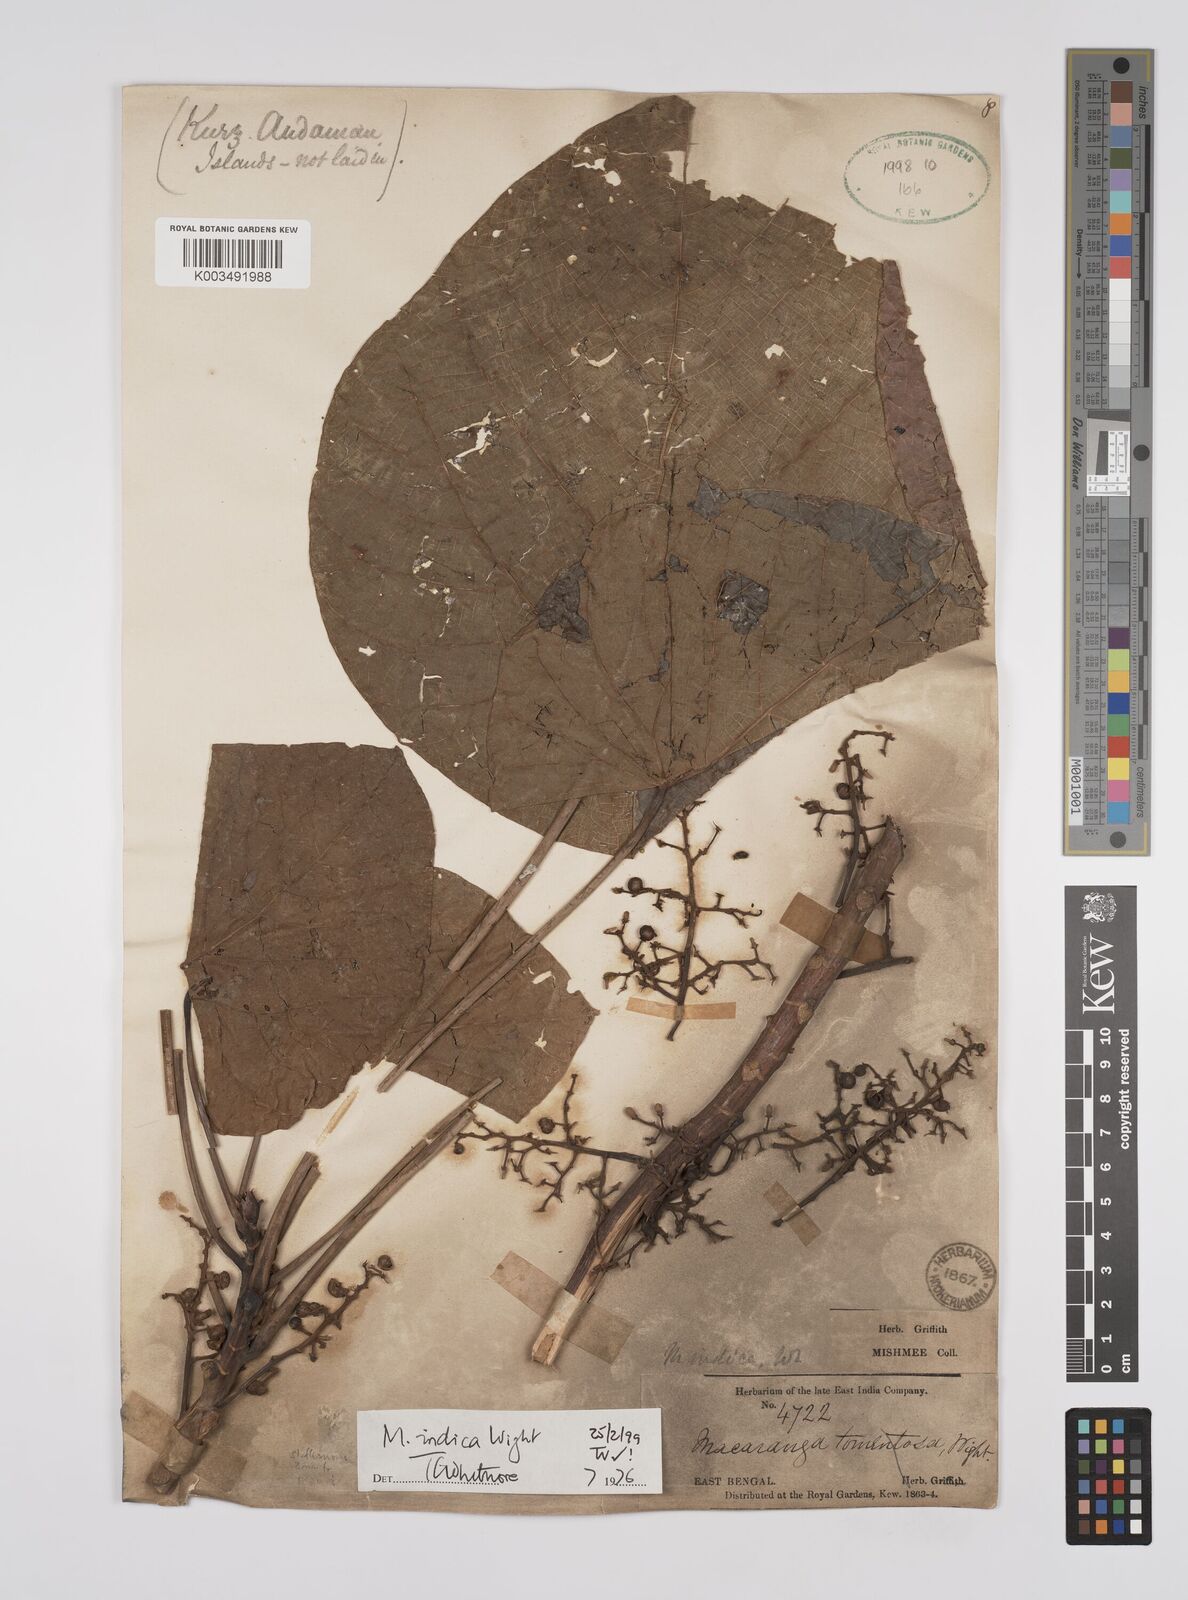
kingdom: Plantae
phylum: Tracheophyta
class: Magnoliopsida
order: Malpighiales
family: Euphorbiaceae
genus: Macaranga
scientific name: Macaranga indica
